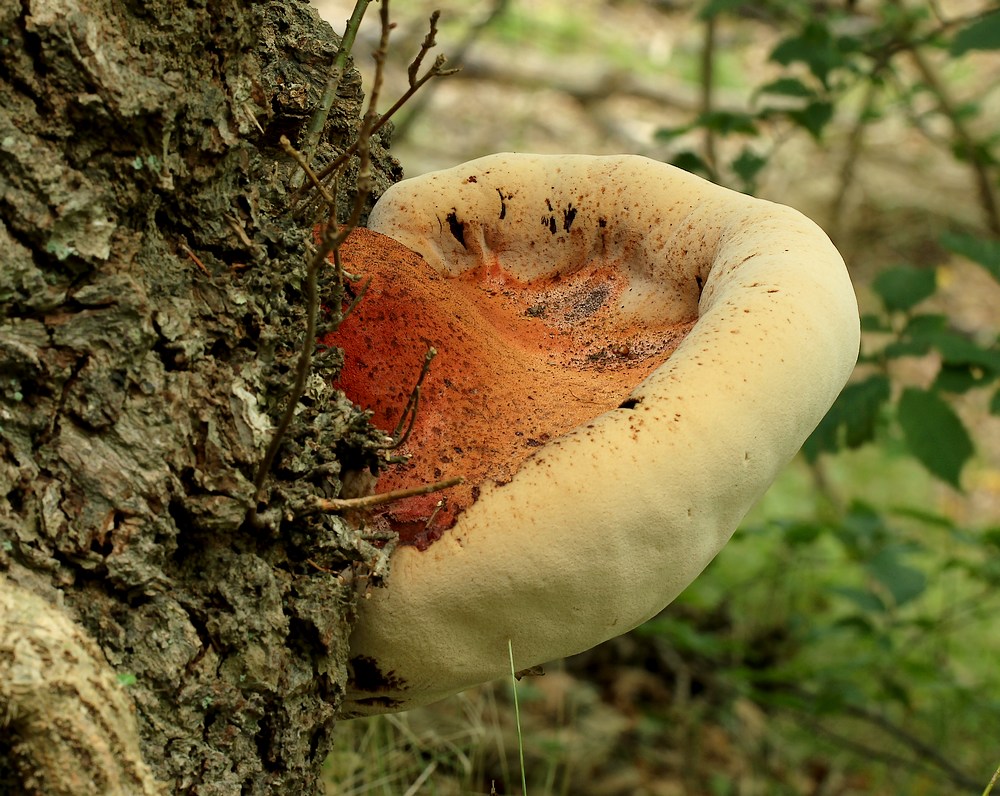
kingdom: Fungi
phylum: Basidiomycota
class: Agaricomycetes
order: Agaricales
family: Fistulinaceae
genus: Fistulina
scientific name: Fistulina hepatica
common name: oksetunge
